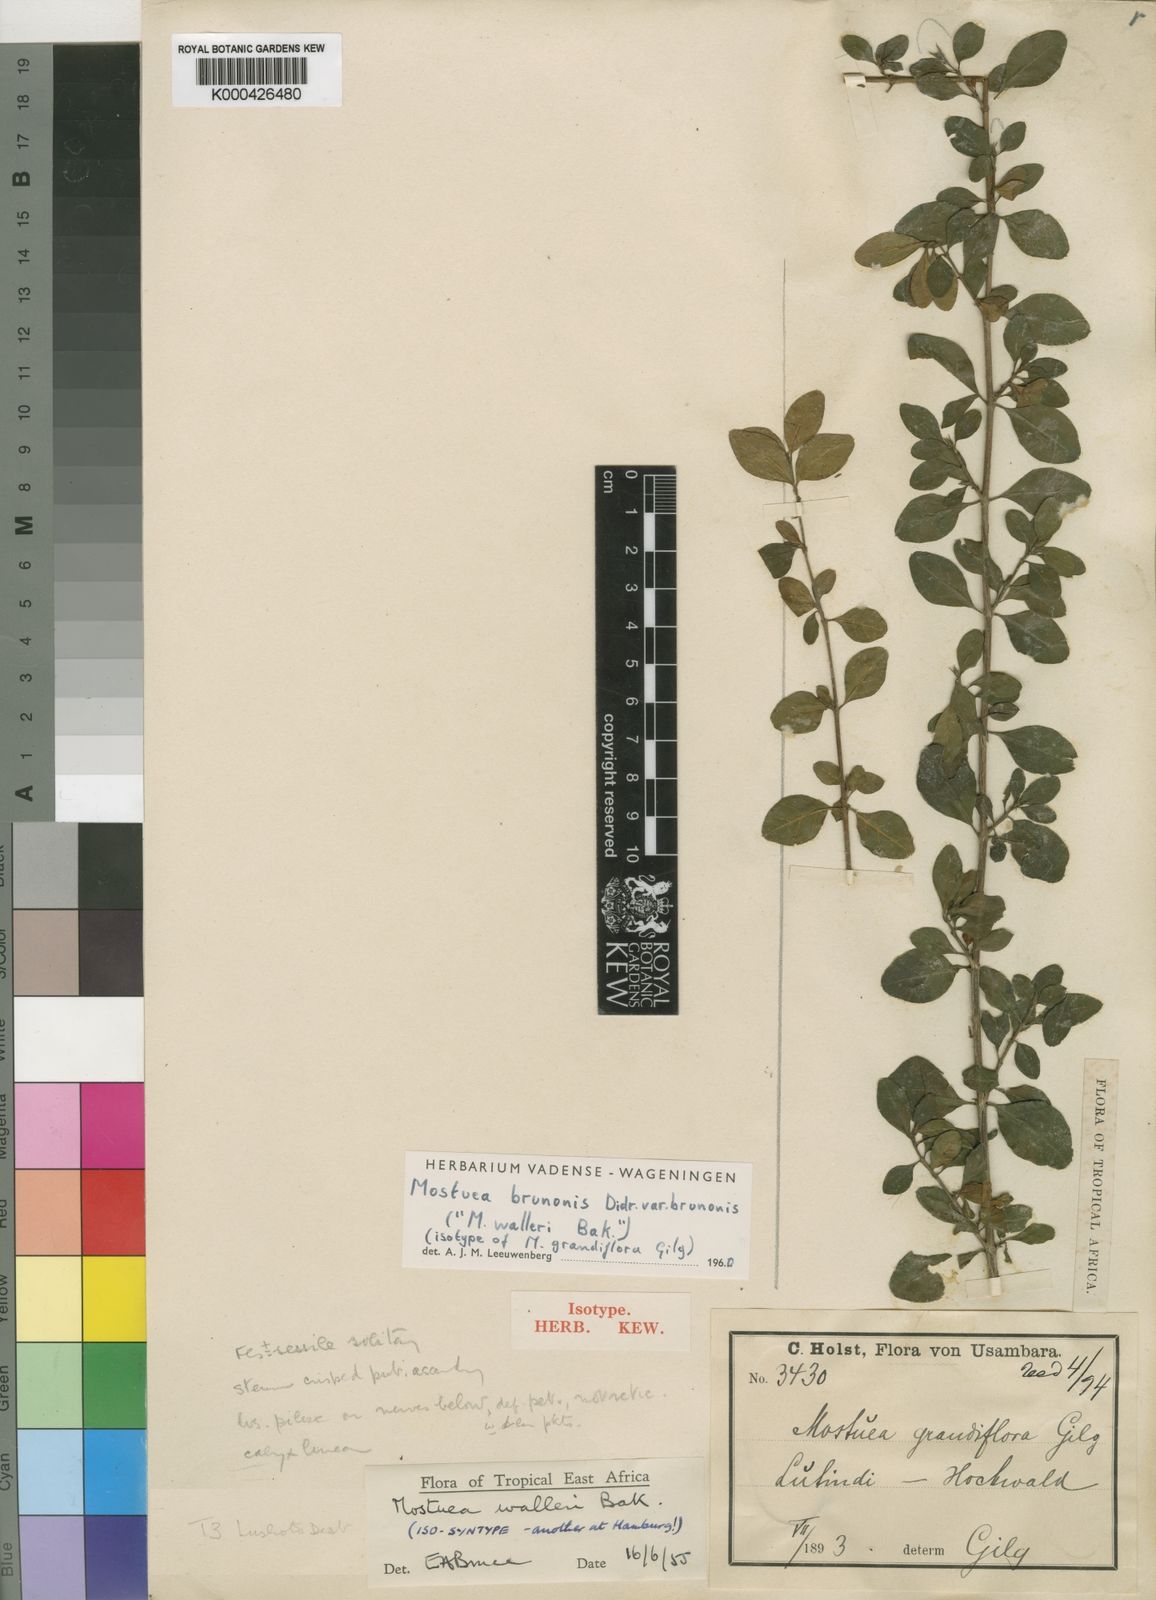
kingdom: Plantae
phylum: Tracheophyta
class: Magnoliopsida
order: Gentianales
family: Gelsemiaceae
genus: Mostuea
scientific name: Mostuea brunonis
